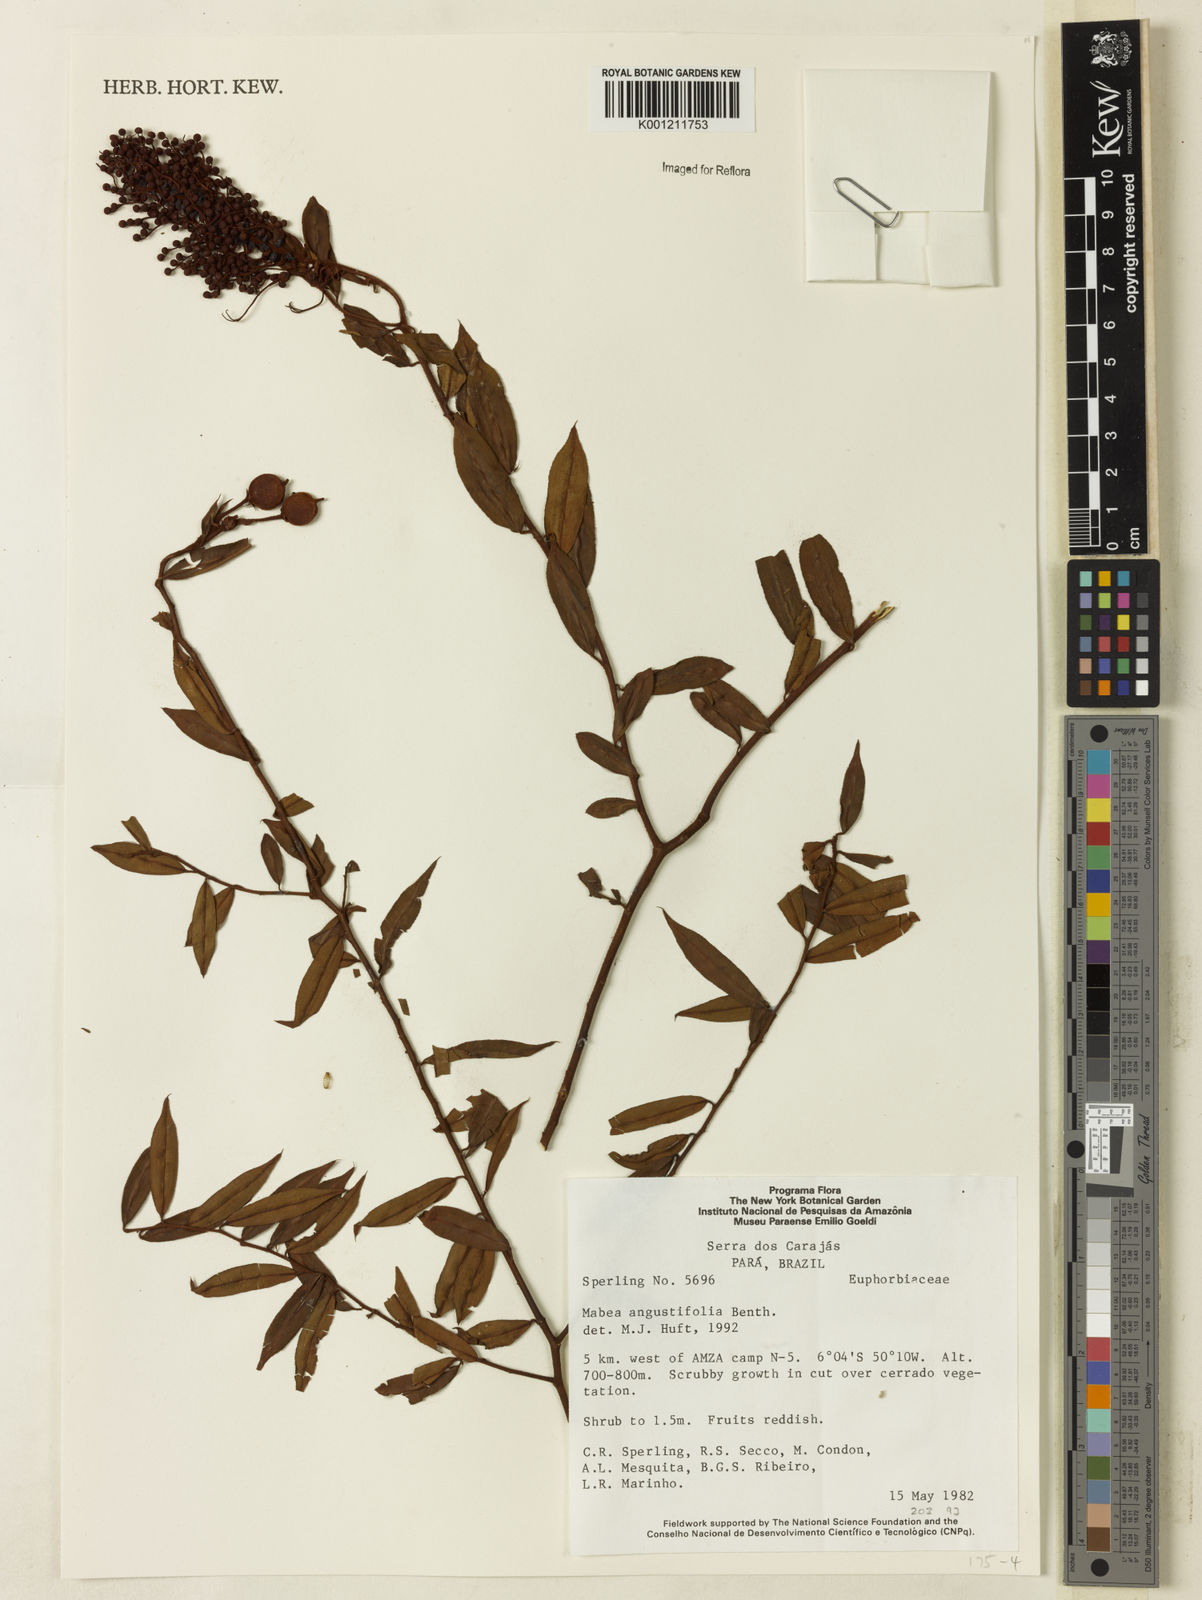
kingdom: Plantae
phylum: Tracheophyta
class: Magnoliopsida
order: Malpighiales
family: Euphorbiaceae
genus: Mabea
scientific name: Mabea angustifolia
